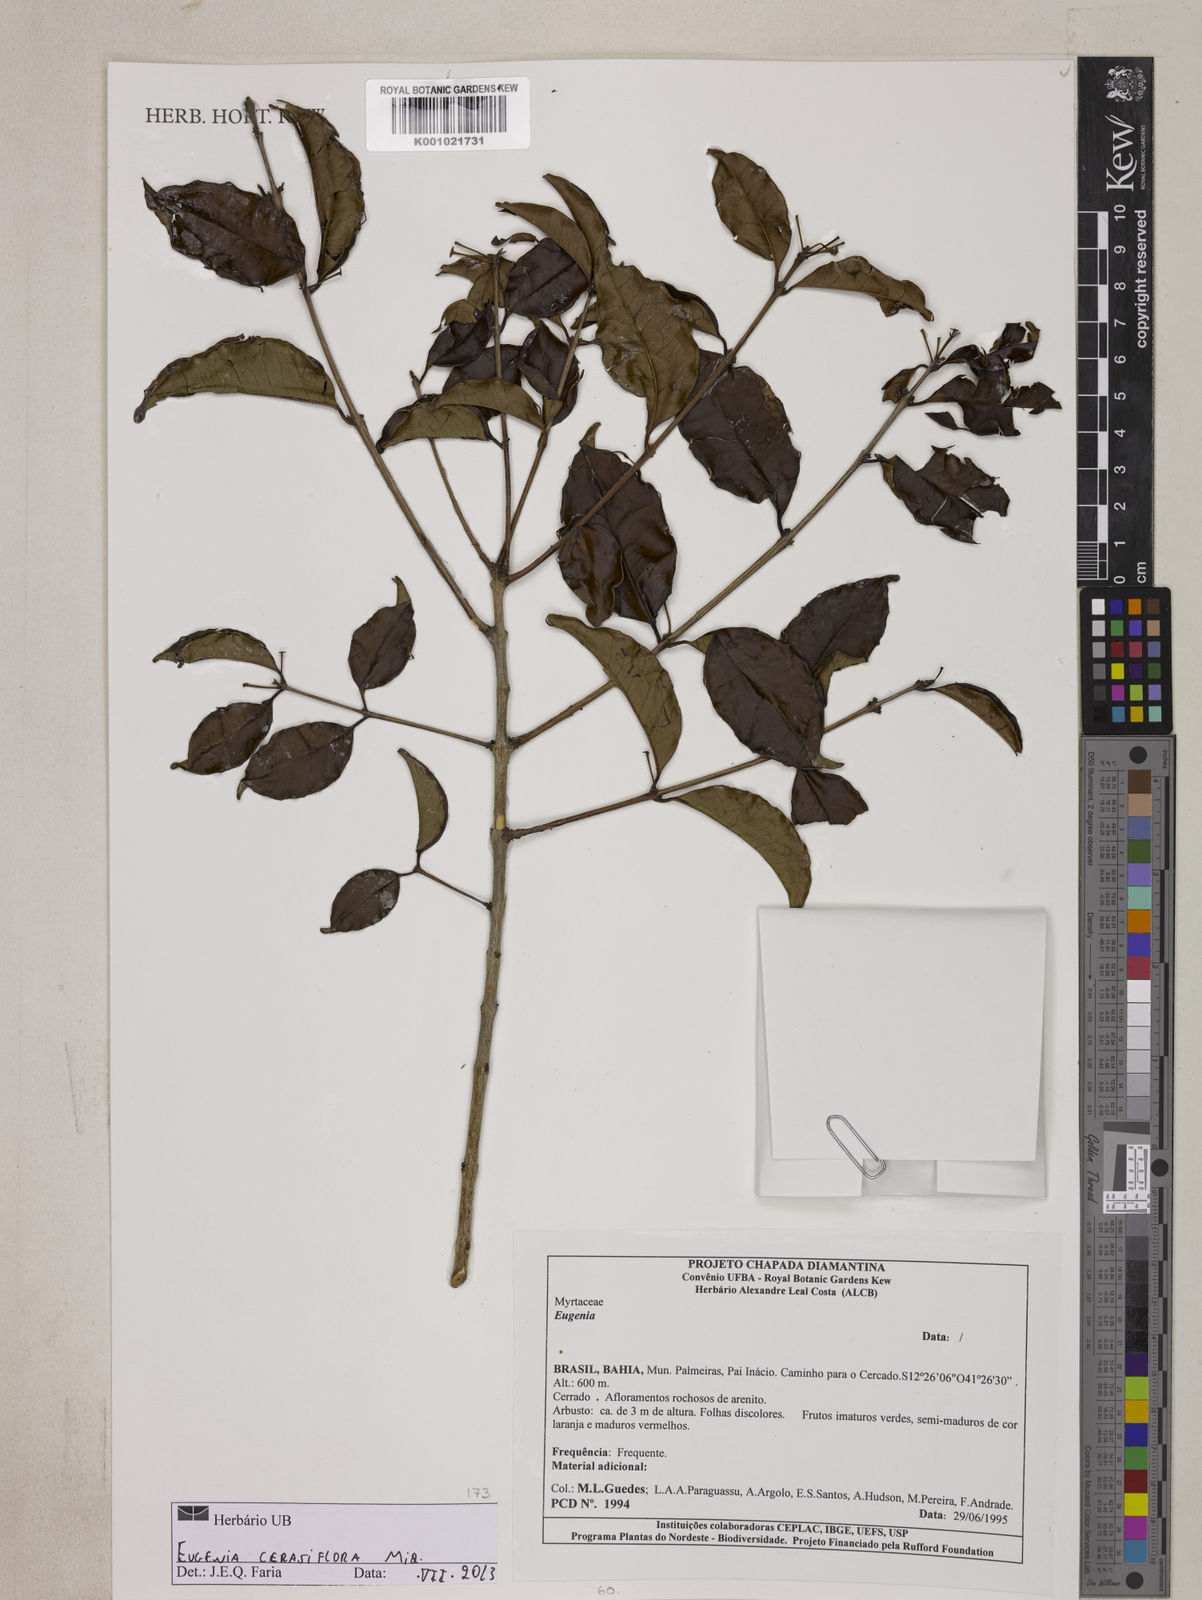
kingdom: Plantae
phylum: Tracheophyta
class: Magnoliopsida
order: Myrtales
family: Myrtaceae
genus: Eugenia
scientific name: Eugenia cerasiflora
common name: Cherry-of-the-rio-grande
